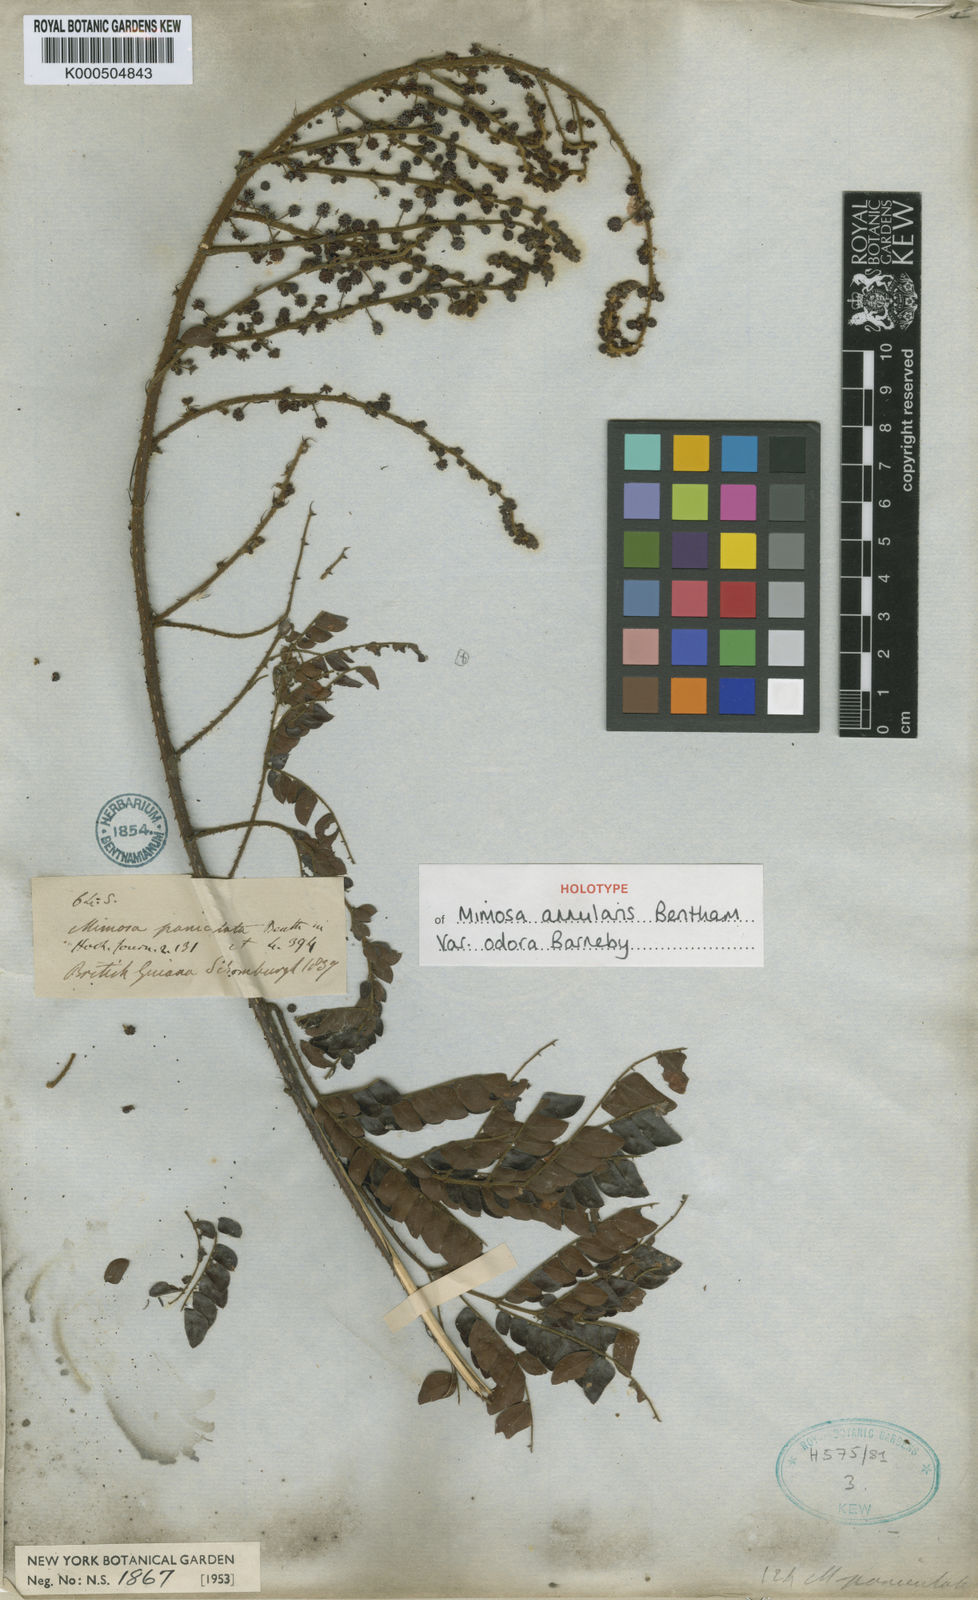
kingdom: Plantae
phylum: Tracheophyta
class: Magnoliopsida
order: Fabales
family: Fabaceae
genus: Mimosa
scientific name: Mimosa annularis
